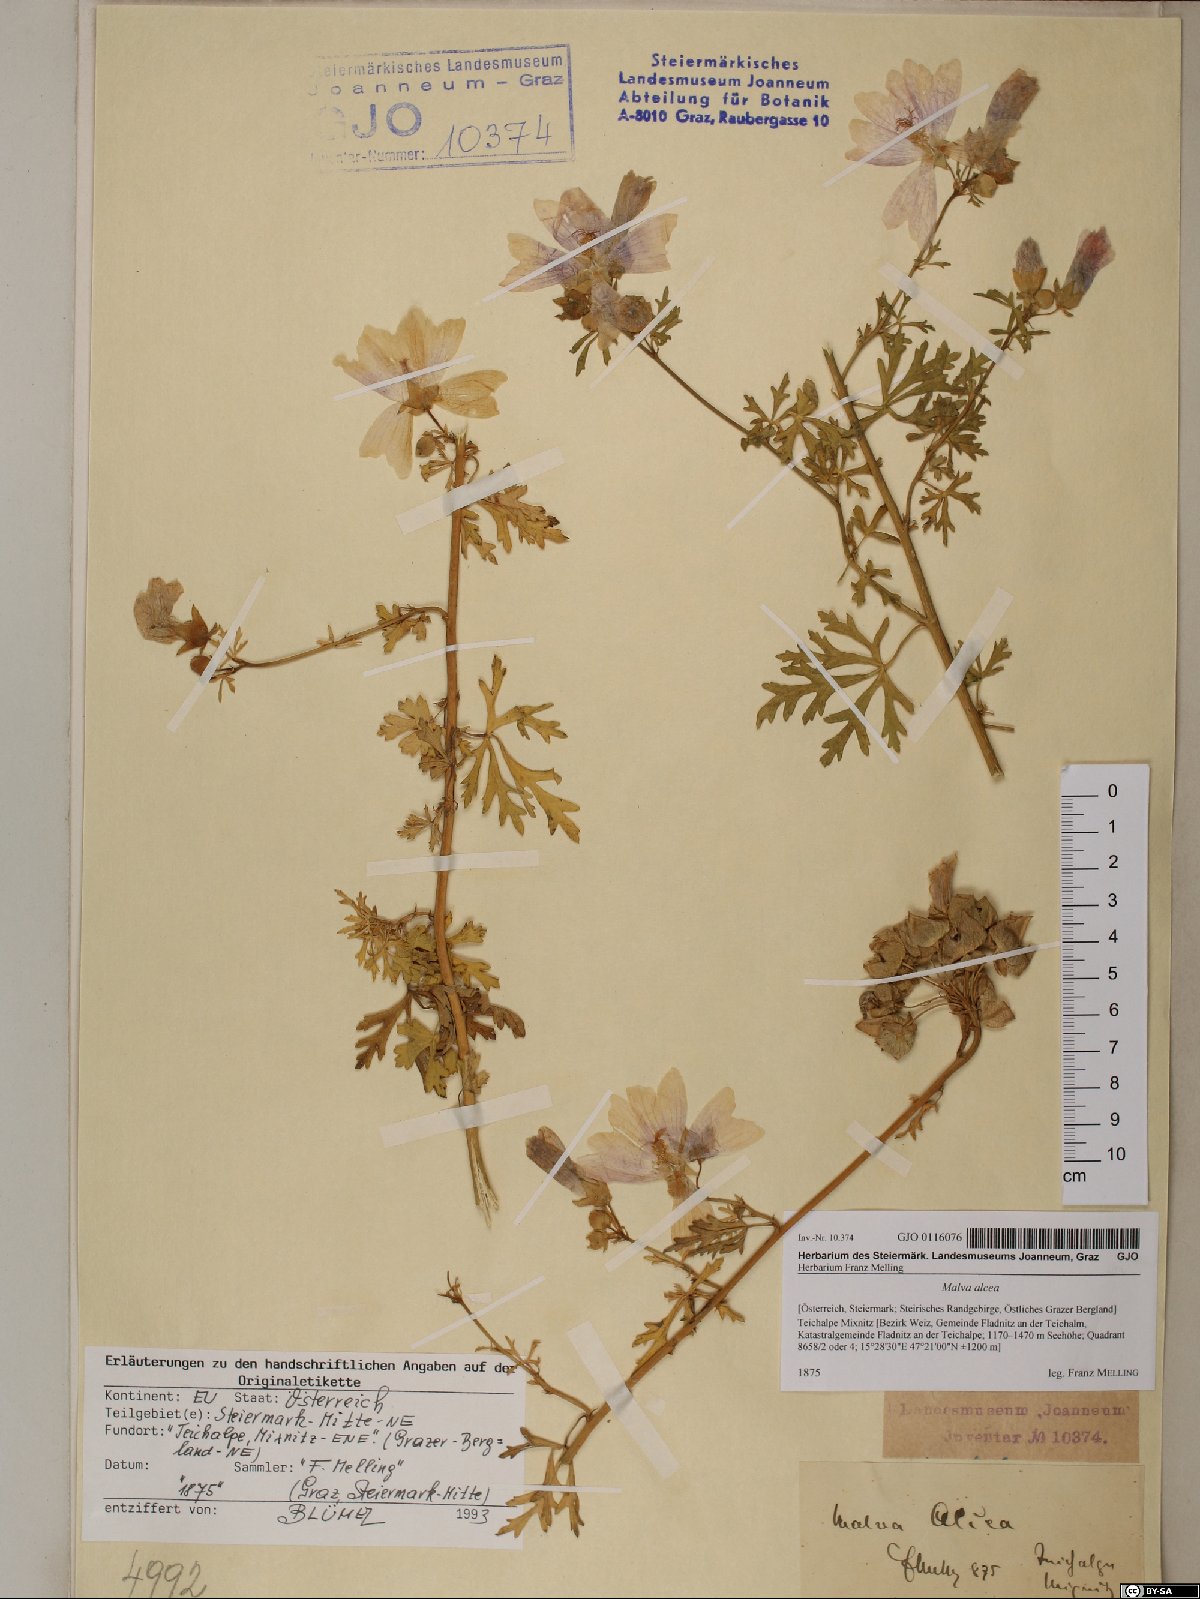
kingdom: Plantae
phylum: Tracheophyta
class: Magnoliopsida
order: Malvales
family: Malvaceae
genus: Malva
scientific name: Malva alcea
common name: Greater musk-mallow
